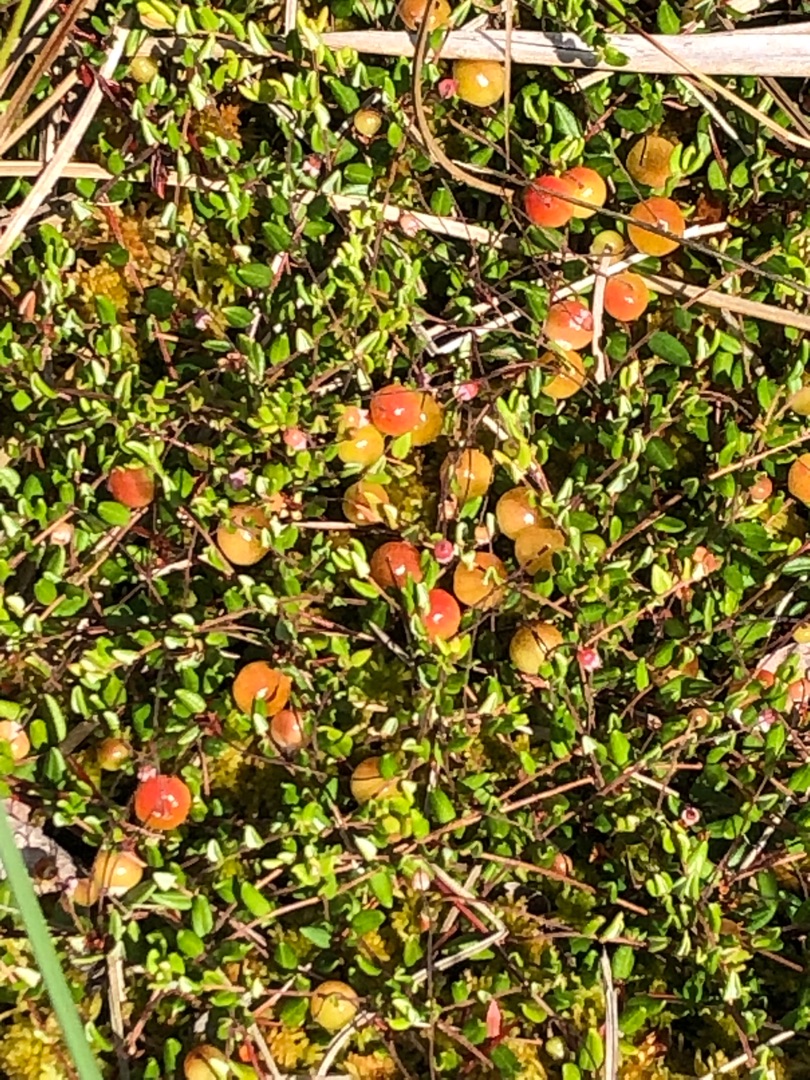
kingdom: Plantae
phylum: Tracheophyta
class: Magnoliopsida
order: Ericales
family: Ericaceae
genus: Vaccinium
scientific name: Vaccinium oxycoccos
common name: Tranebær
